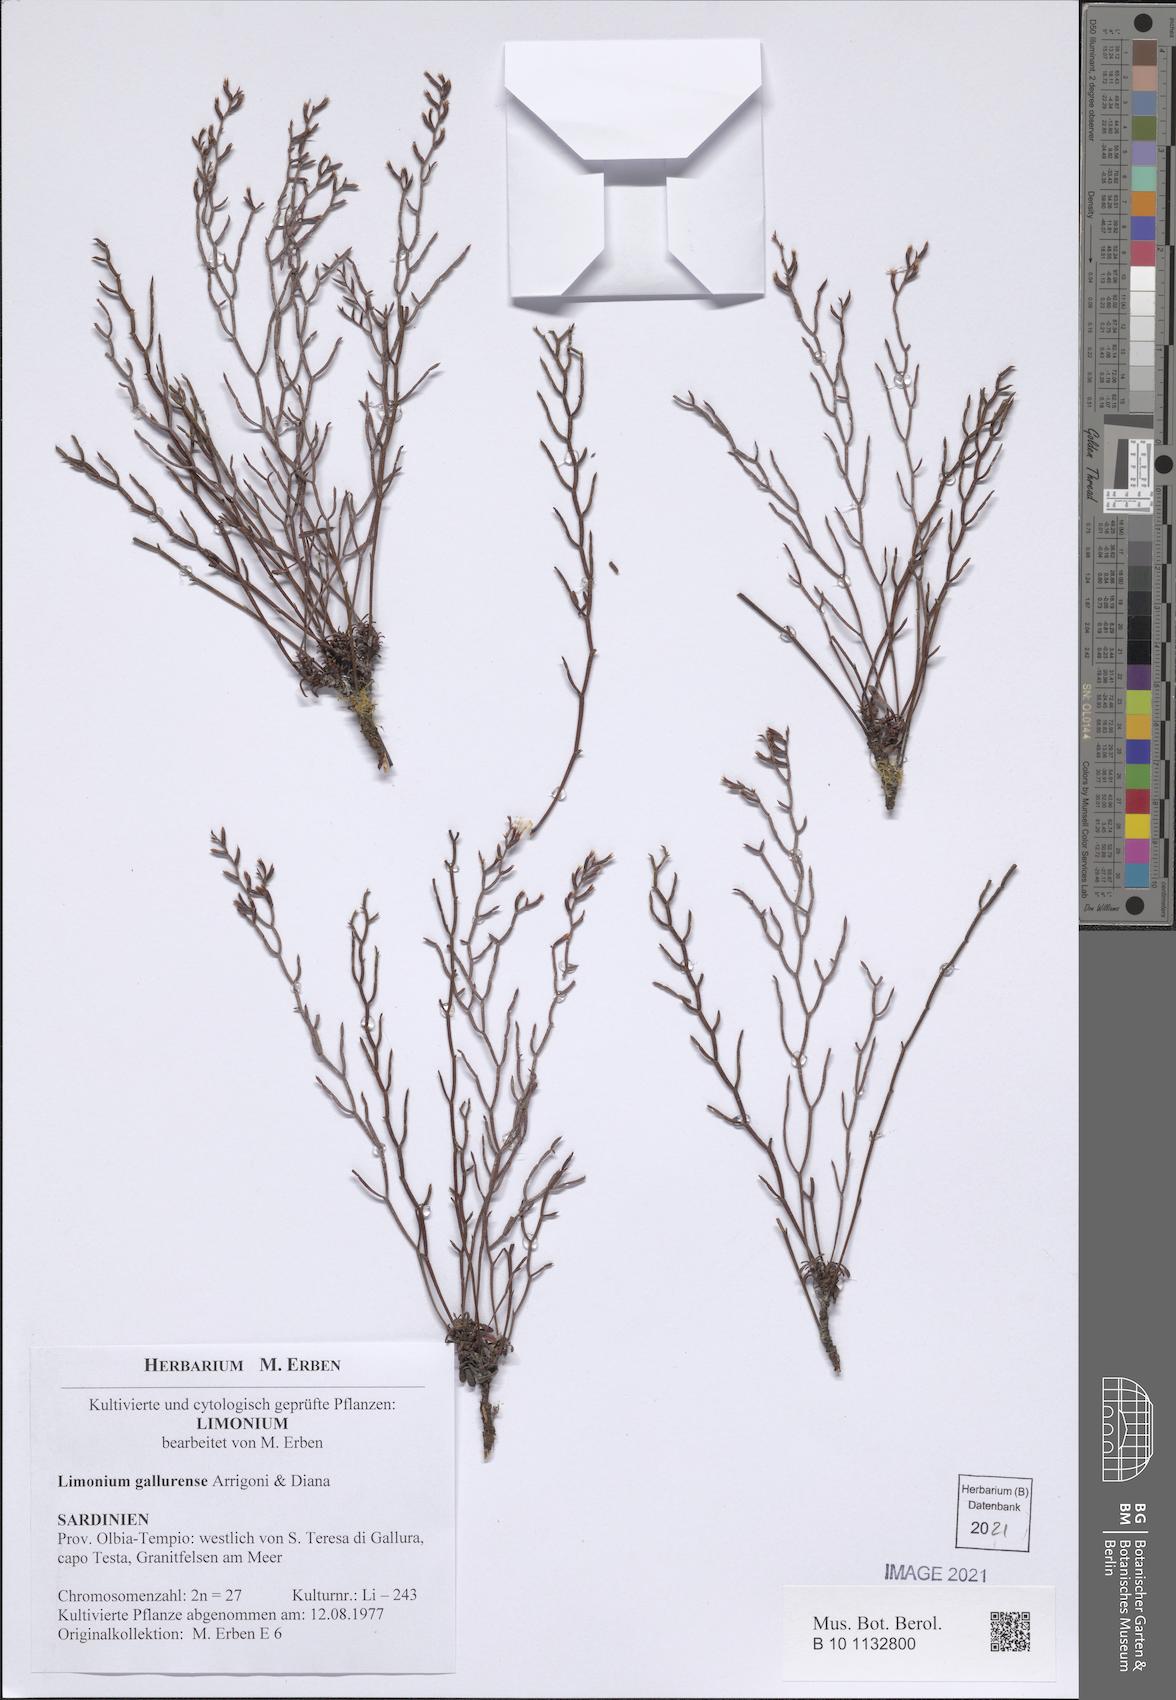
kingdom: Plantae
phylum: Tracheophyta
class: Magnoliopsida
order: Caryophyllales
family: Plumbaginaceae
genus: Limonium
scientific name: Limonium gallurense
